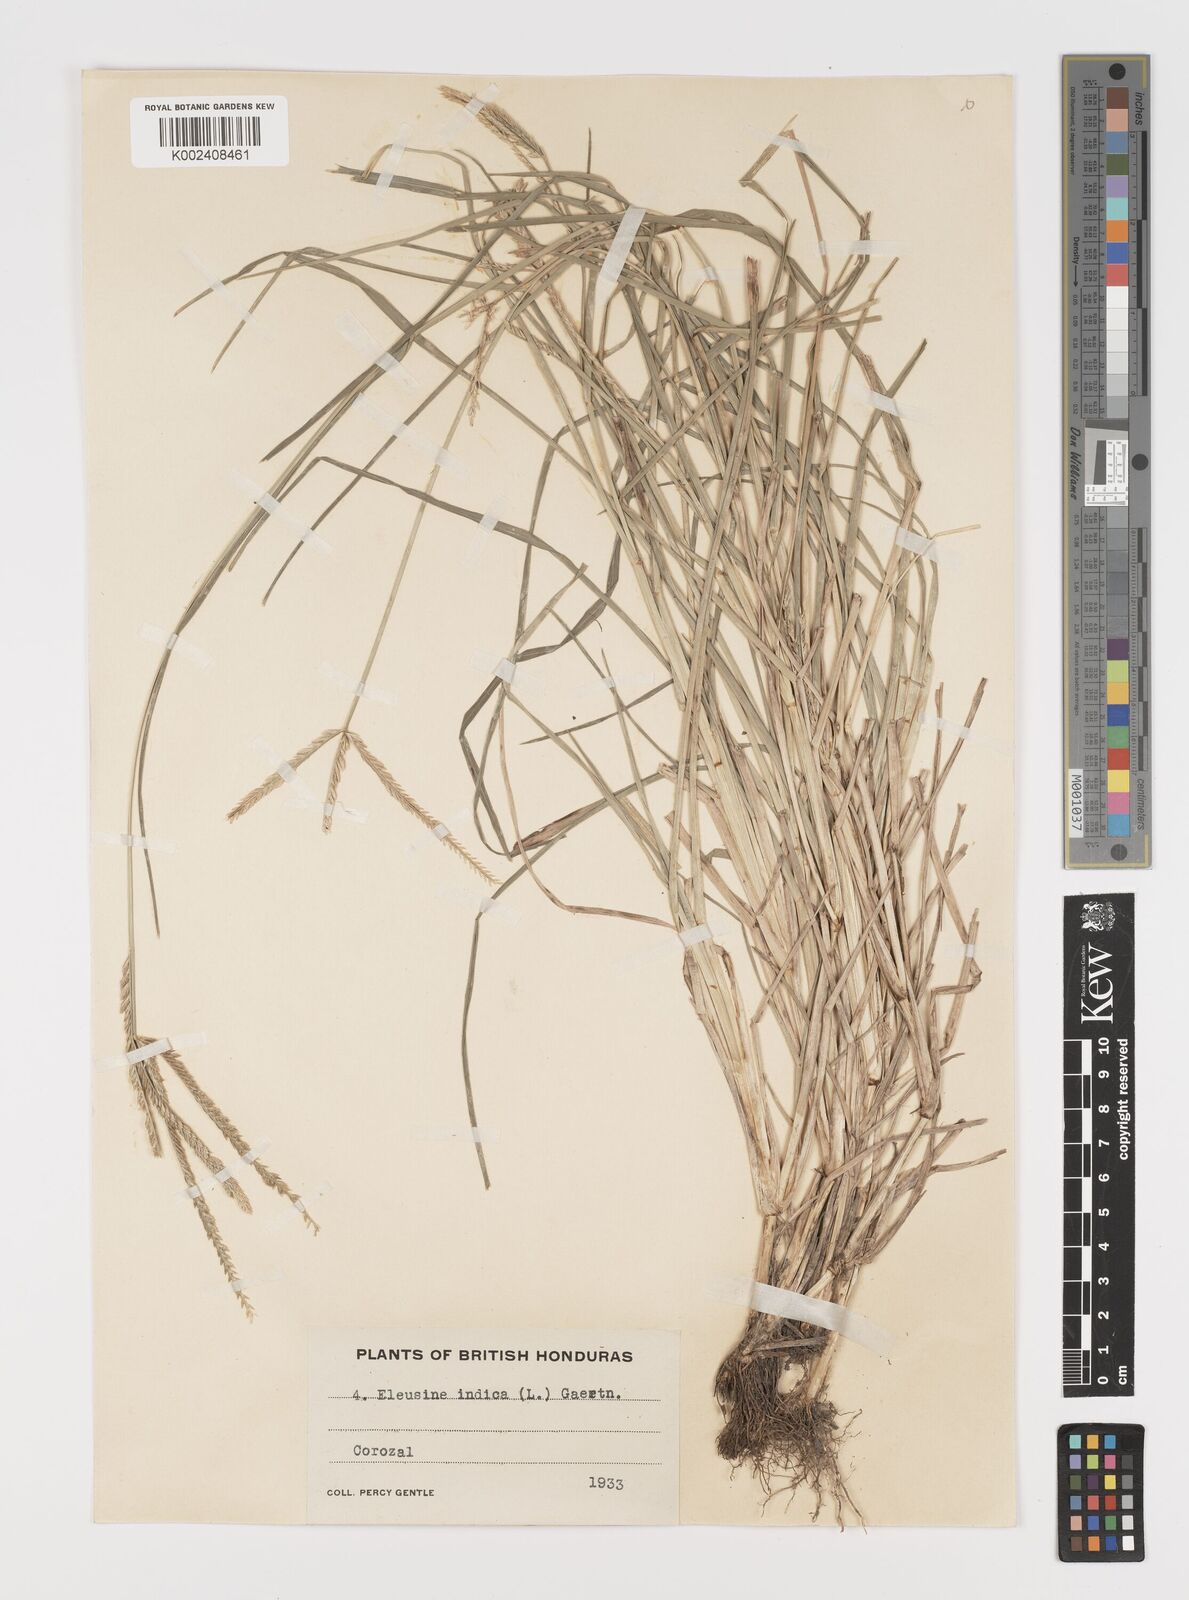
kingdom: Plantae
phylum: Tracheophyta
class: Liliopsida
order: Poales
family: Poaceae
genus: Eleusine
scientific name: Eleusine indica
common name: Yard-grass
